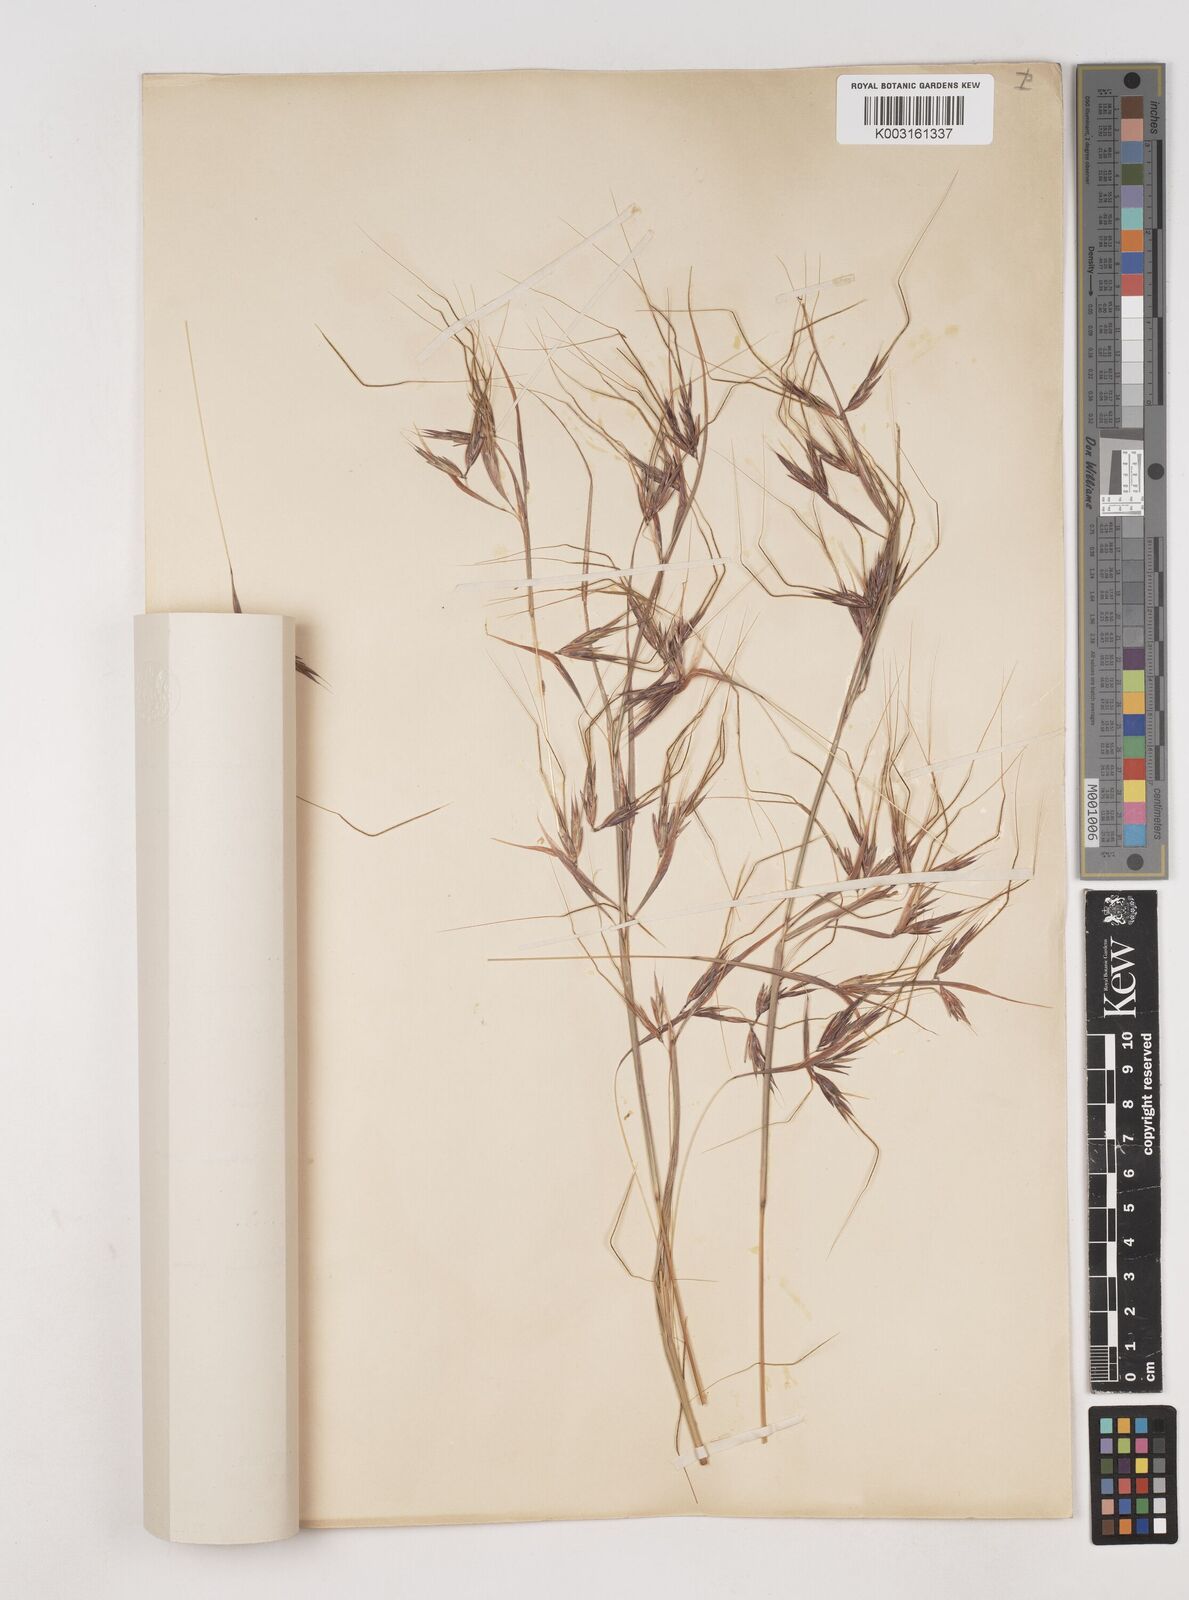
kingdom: Plantae
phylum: Tracheophyta
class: Liliopsida
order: Poales
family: Poaceae
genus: Hyparrhenia
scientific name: Hyparrhenia subplumosa
